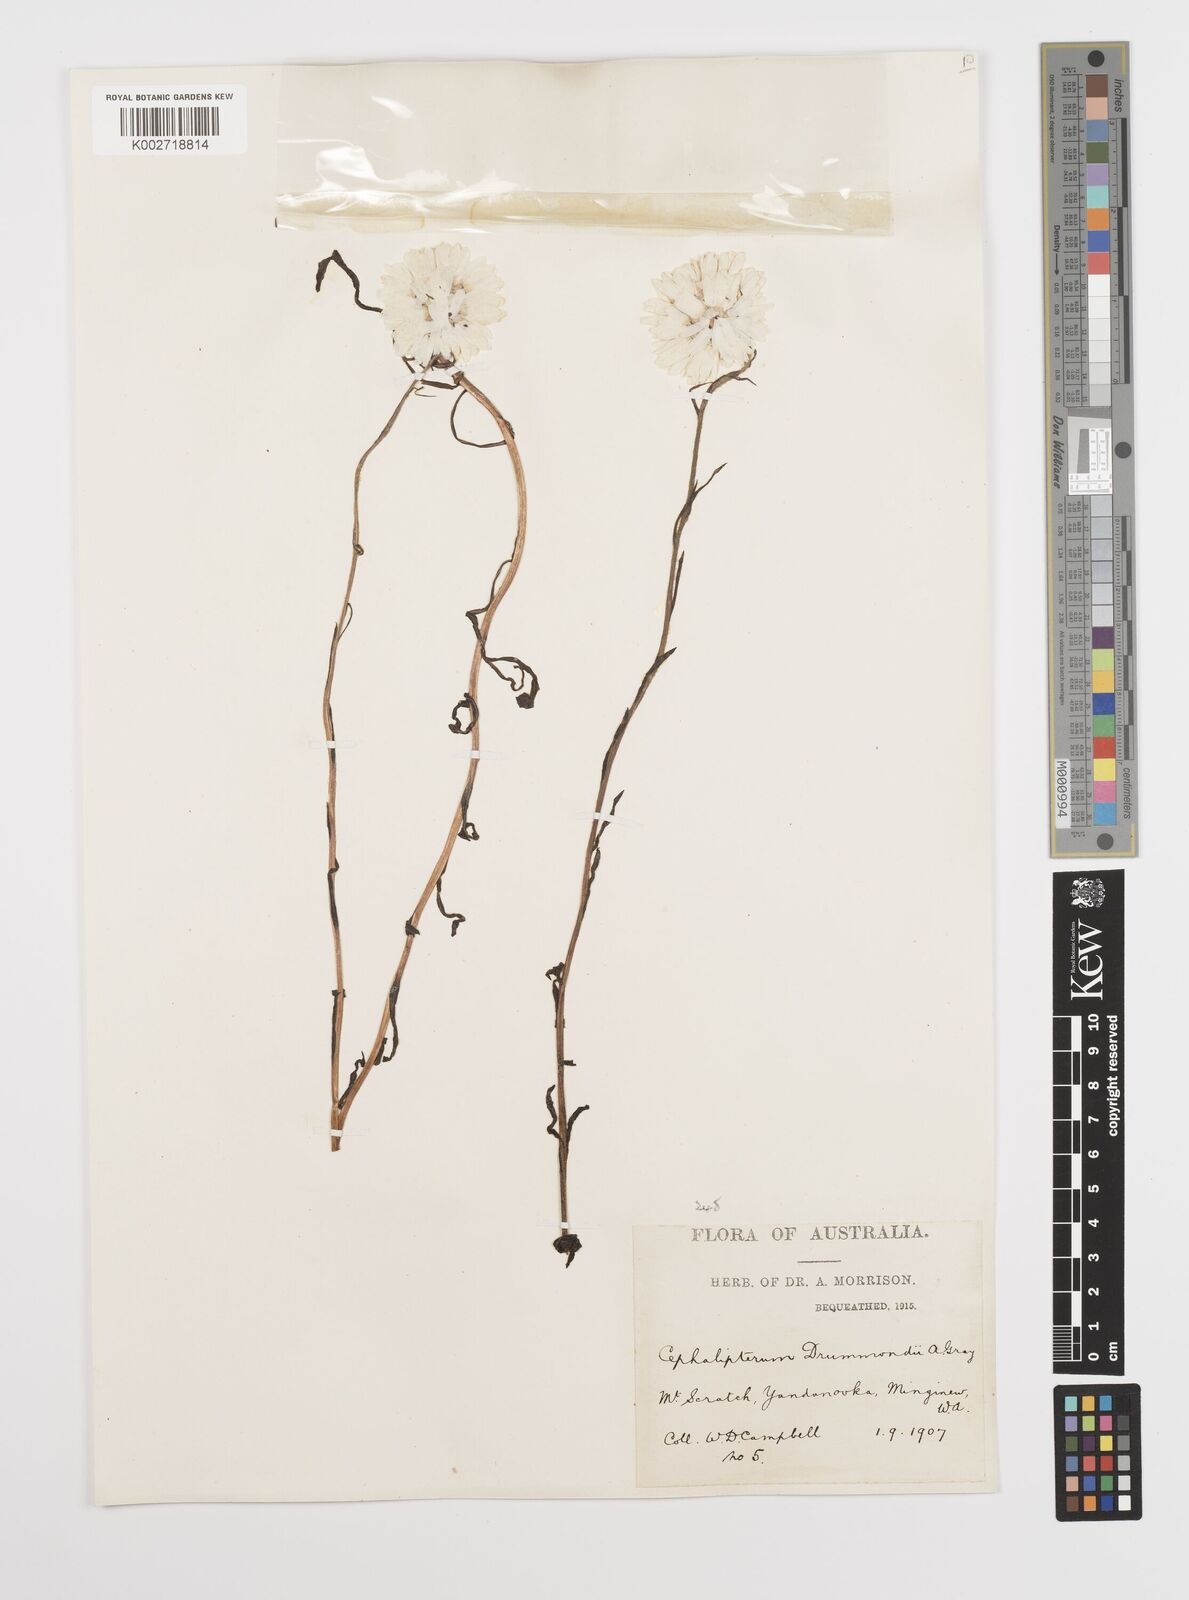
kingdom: Plantae
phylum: Tracheophyta
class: Magnoliopsida
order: Asterales
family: Asteraceae
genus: Cephalipterum
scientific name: Cephalipterum drummondii
